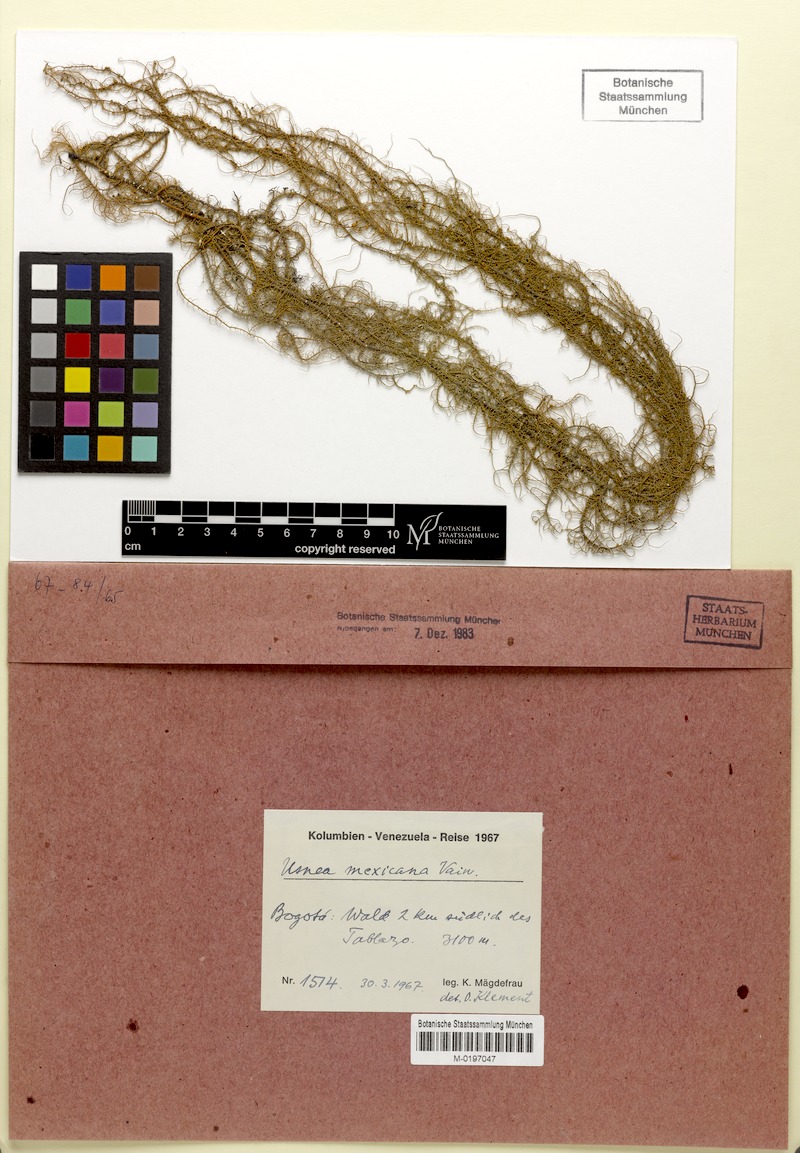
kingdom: Fungi
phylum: Ascomycota
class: Lecanoromycetes
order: Lecanorales
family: Parmeliaceae
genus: Usnea
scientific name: Usnea
